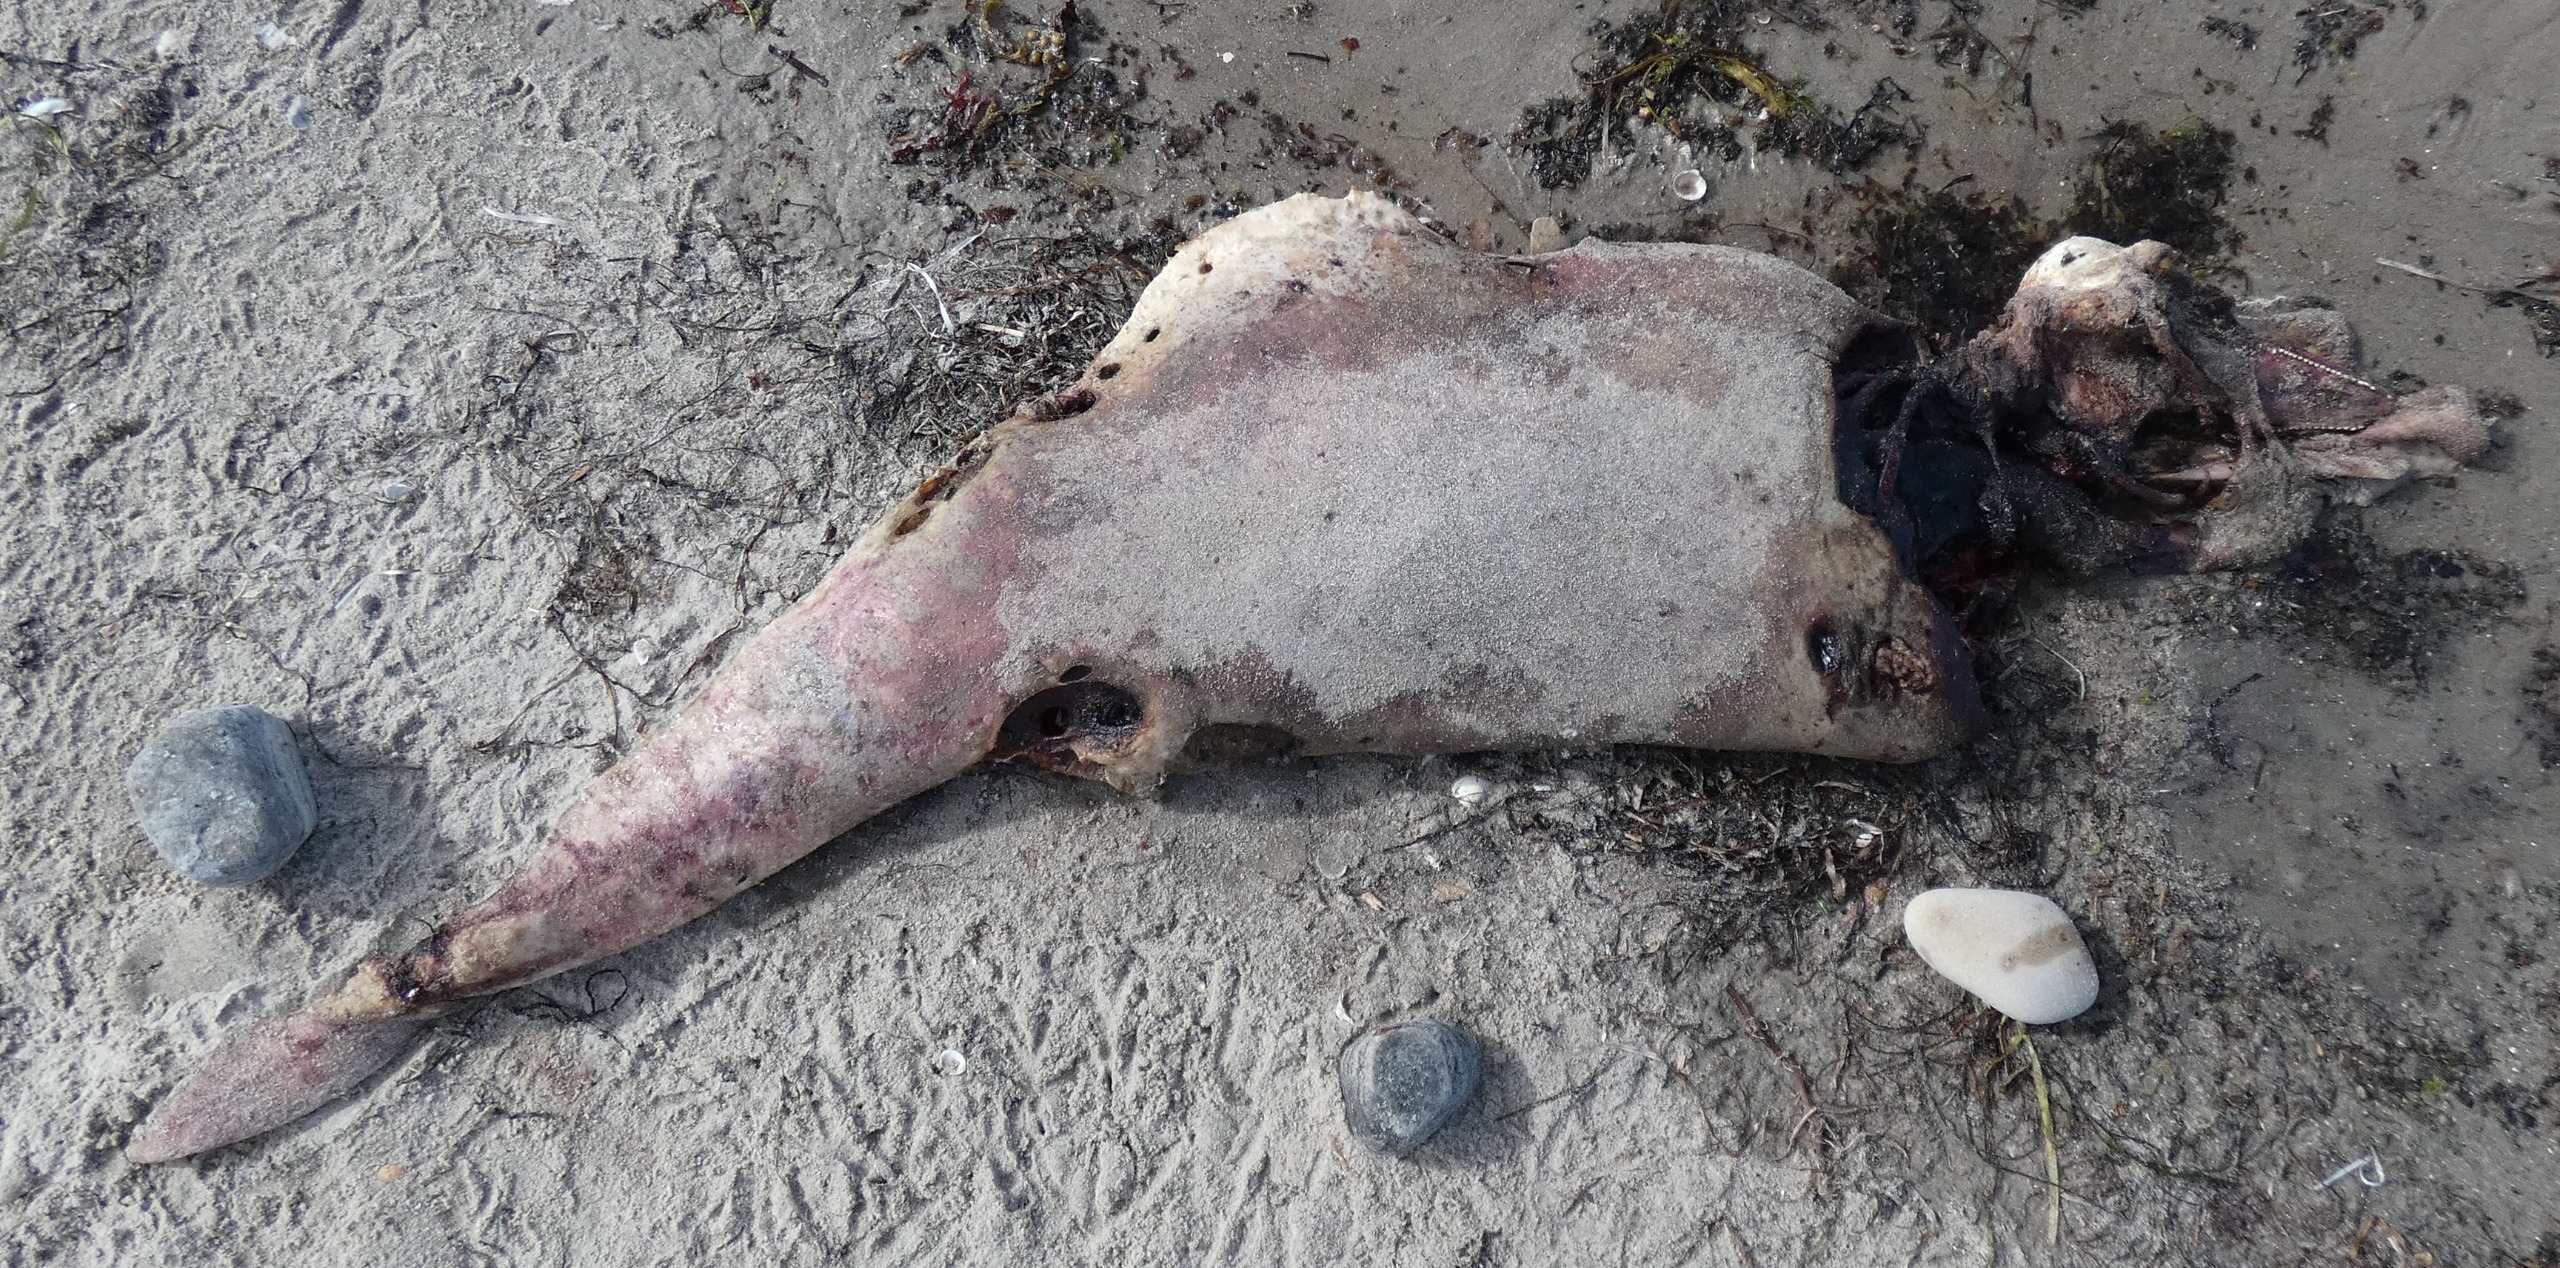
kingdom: Animalia
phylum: Chordata
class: Mammalia
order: Cetacea
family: Phocoenidae
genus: Phocoena
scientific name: Phocoena phocoena
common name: Marsvin
